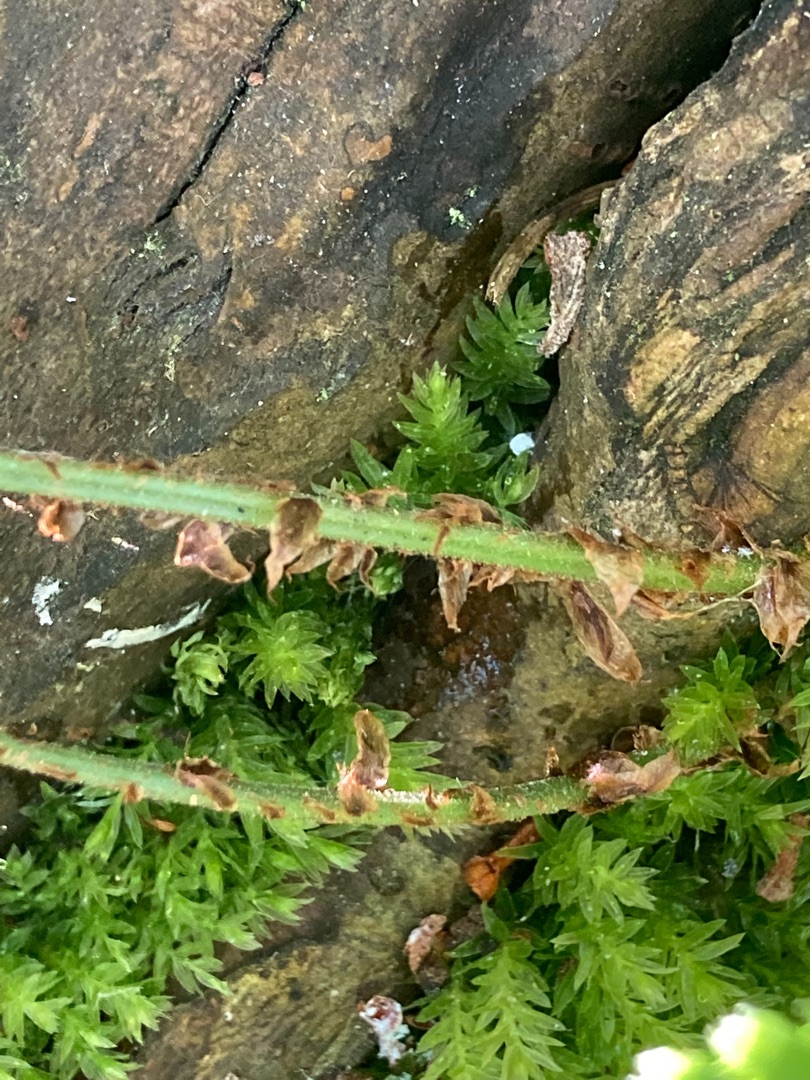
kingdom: Plantae
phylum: Tracheophyta
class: Polypodiopsida
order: Polypodiales
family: Dryopteridaceae
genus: Dryopteris
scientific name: Dryopteris dilatata
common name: Bredbladet mangeløv
